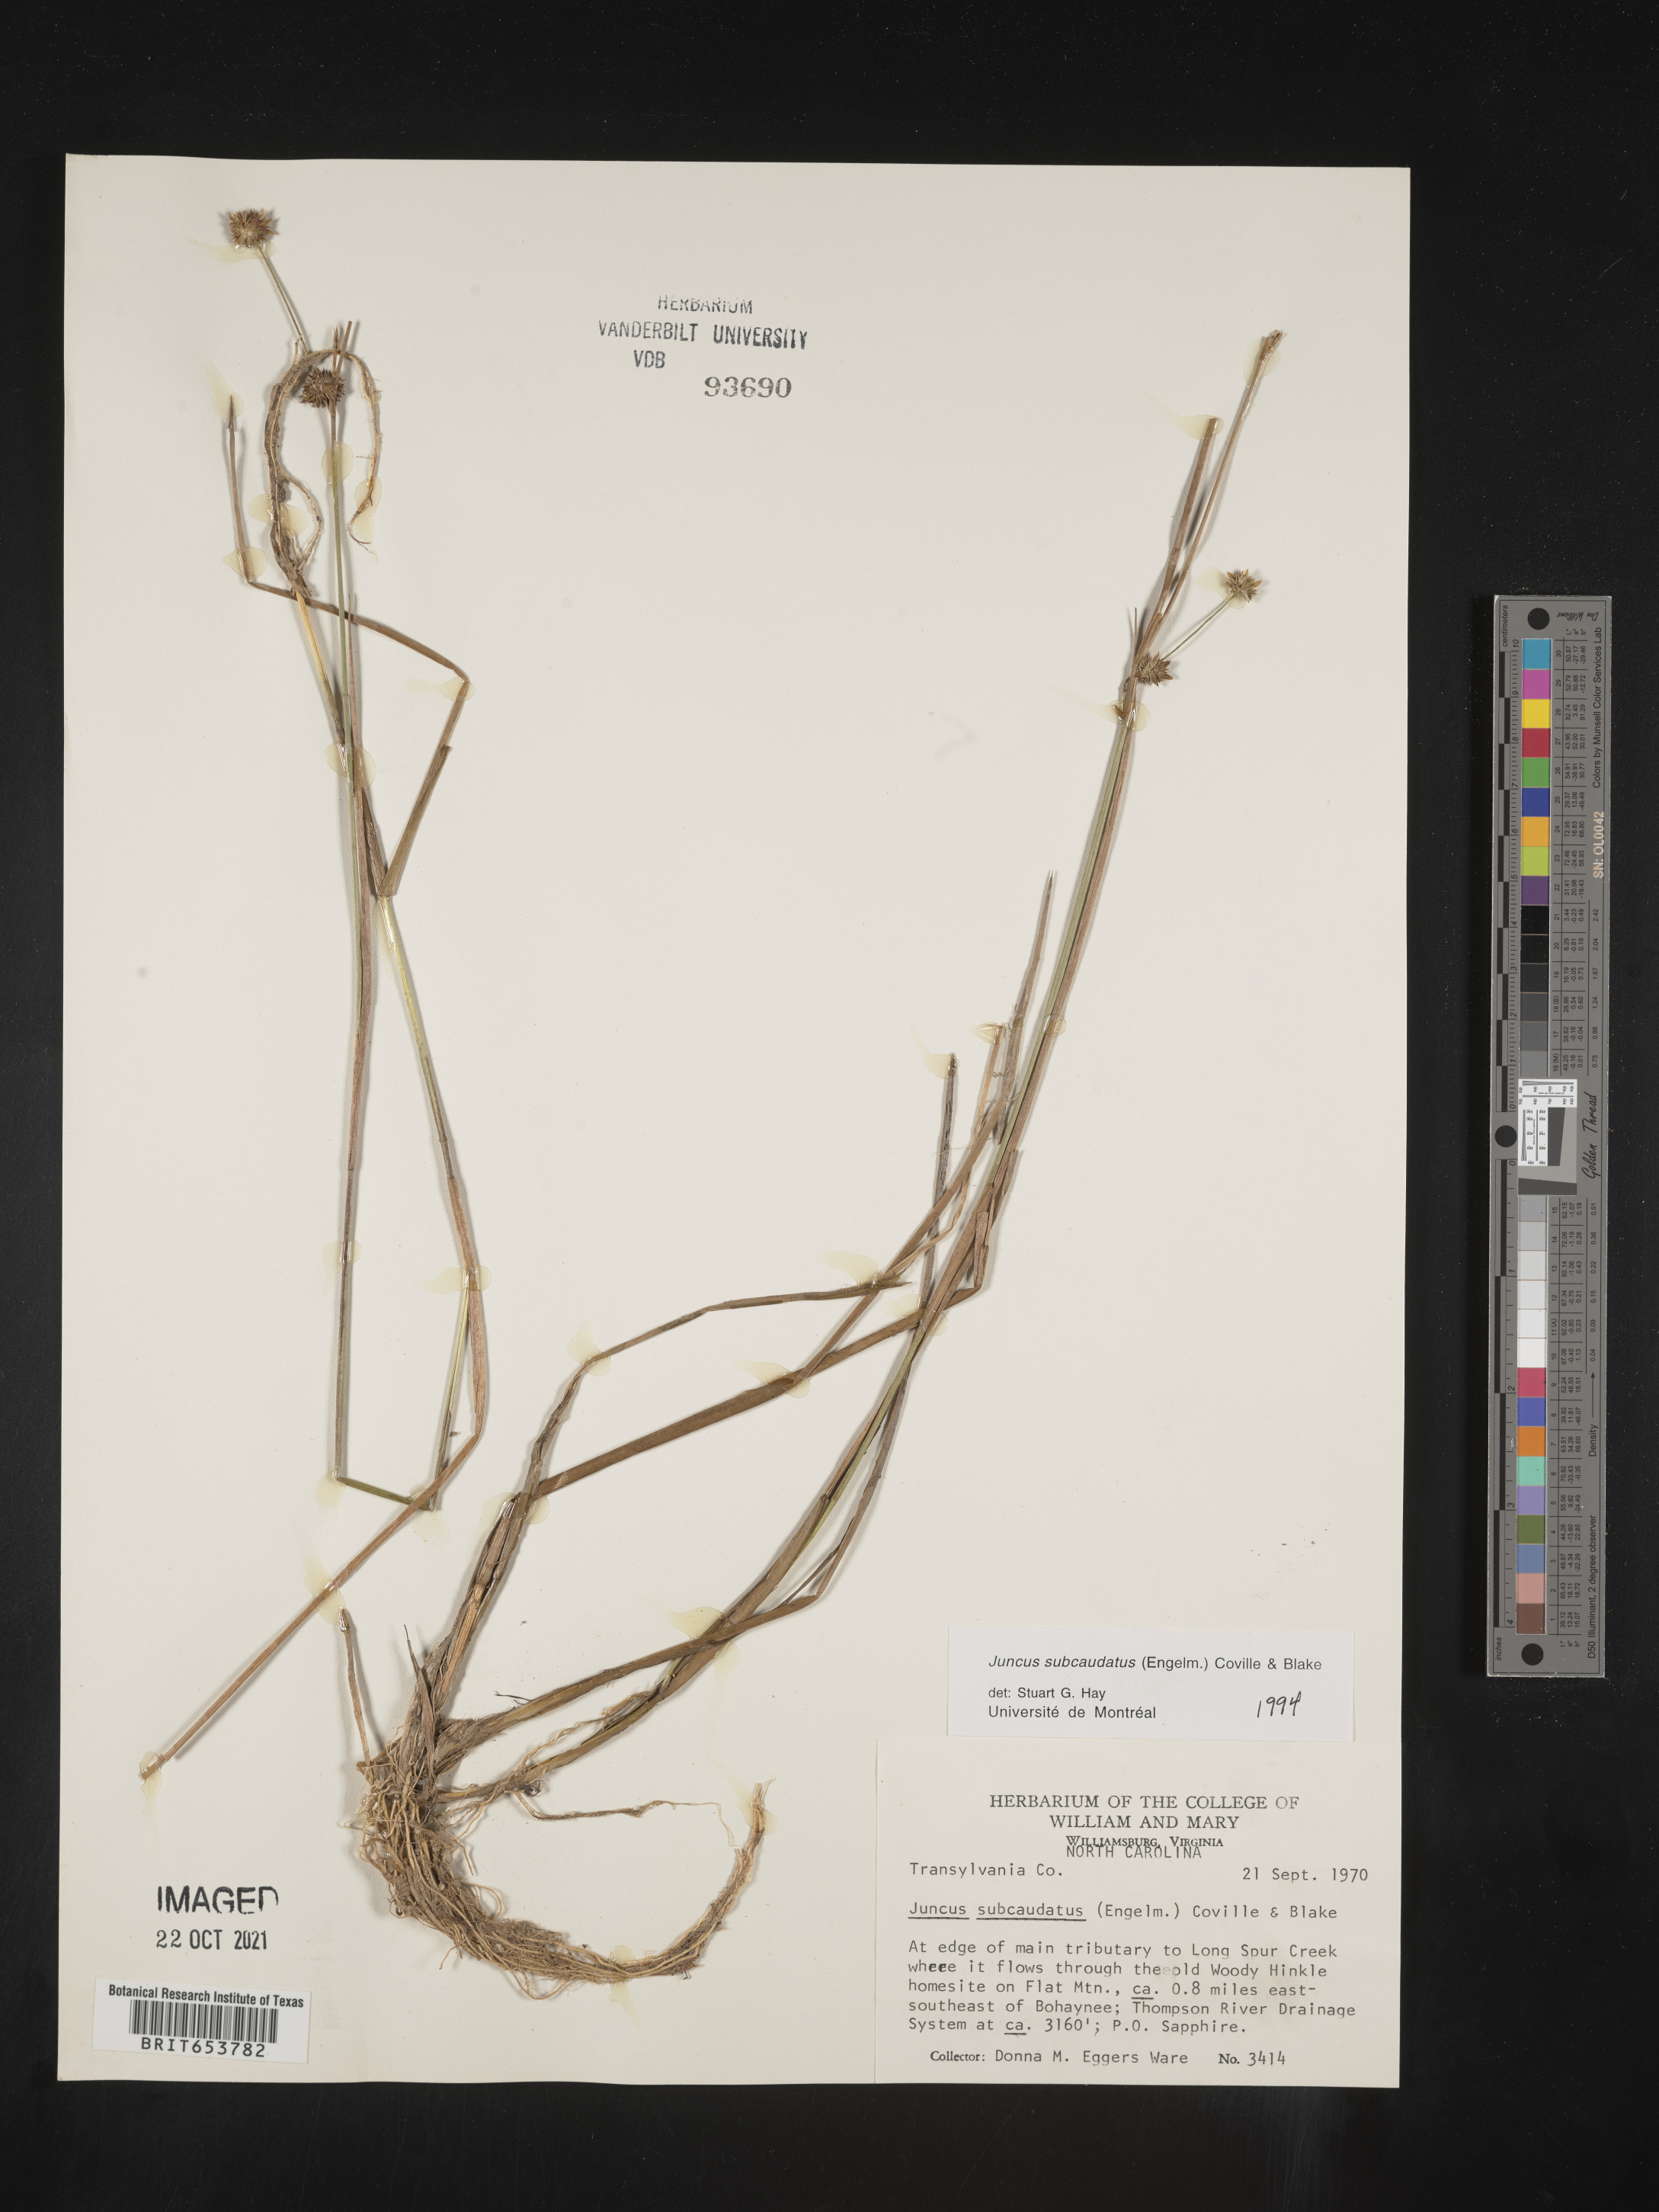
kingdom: Plantae
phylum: Tracheophyta
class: Liliopsida
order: Poales
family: Juncaceae
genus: Juncus
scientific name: Juncus subcaudatus
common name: Engelmann's rush
